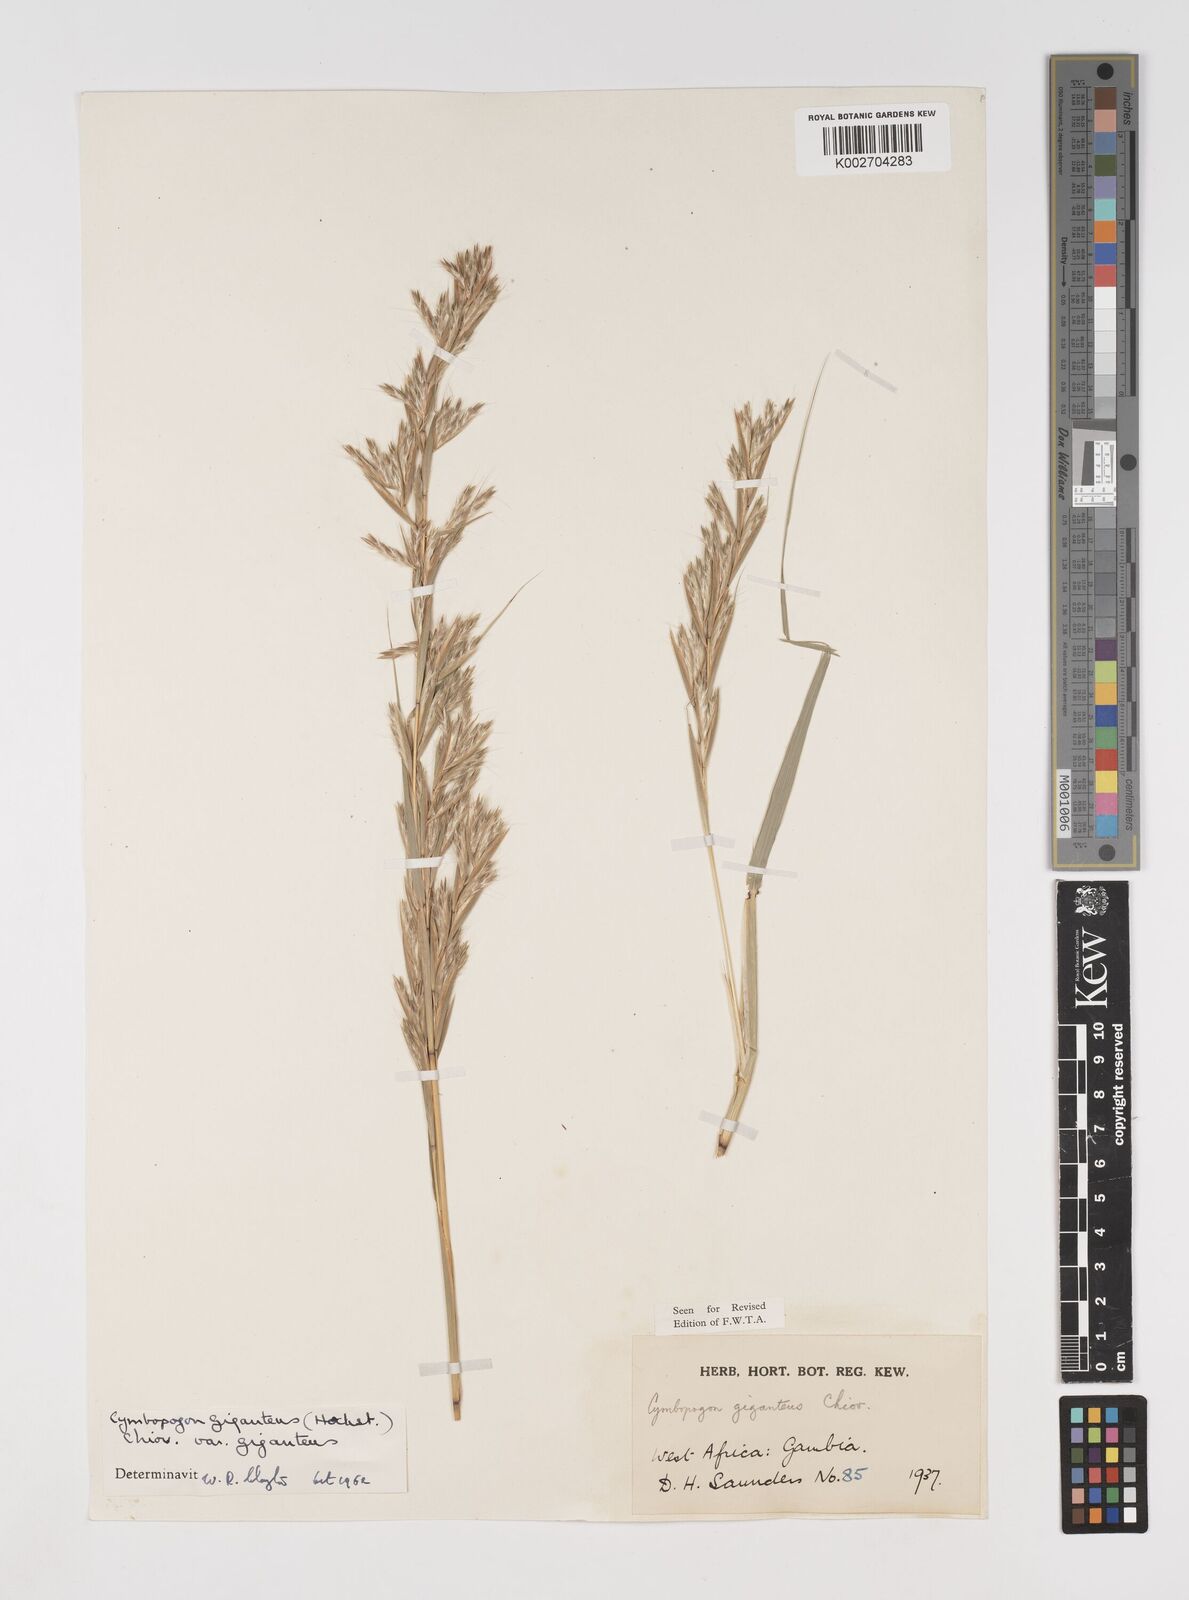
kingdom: Plantae
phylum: Tracheophyta
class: Liliopsida
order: Poales
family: Poaceae
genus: Cymbopogon
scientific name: Cymbopogon giganteus
